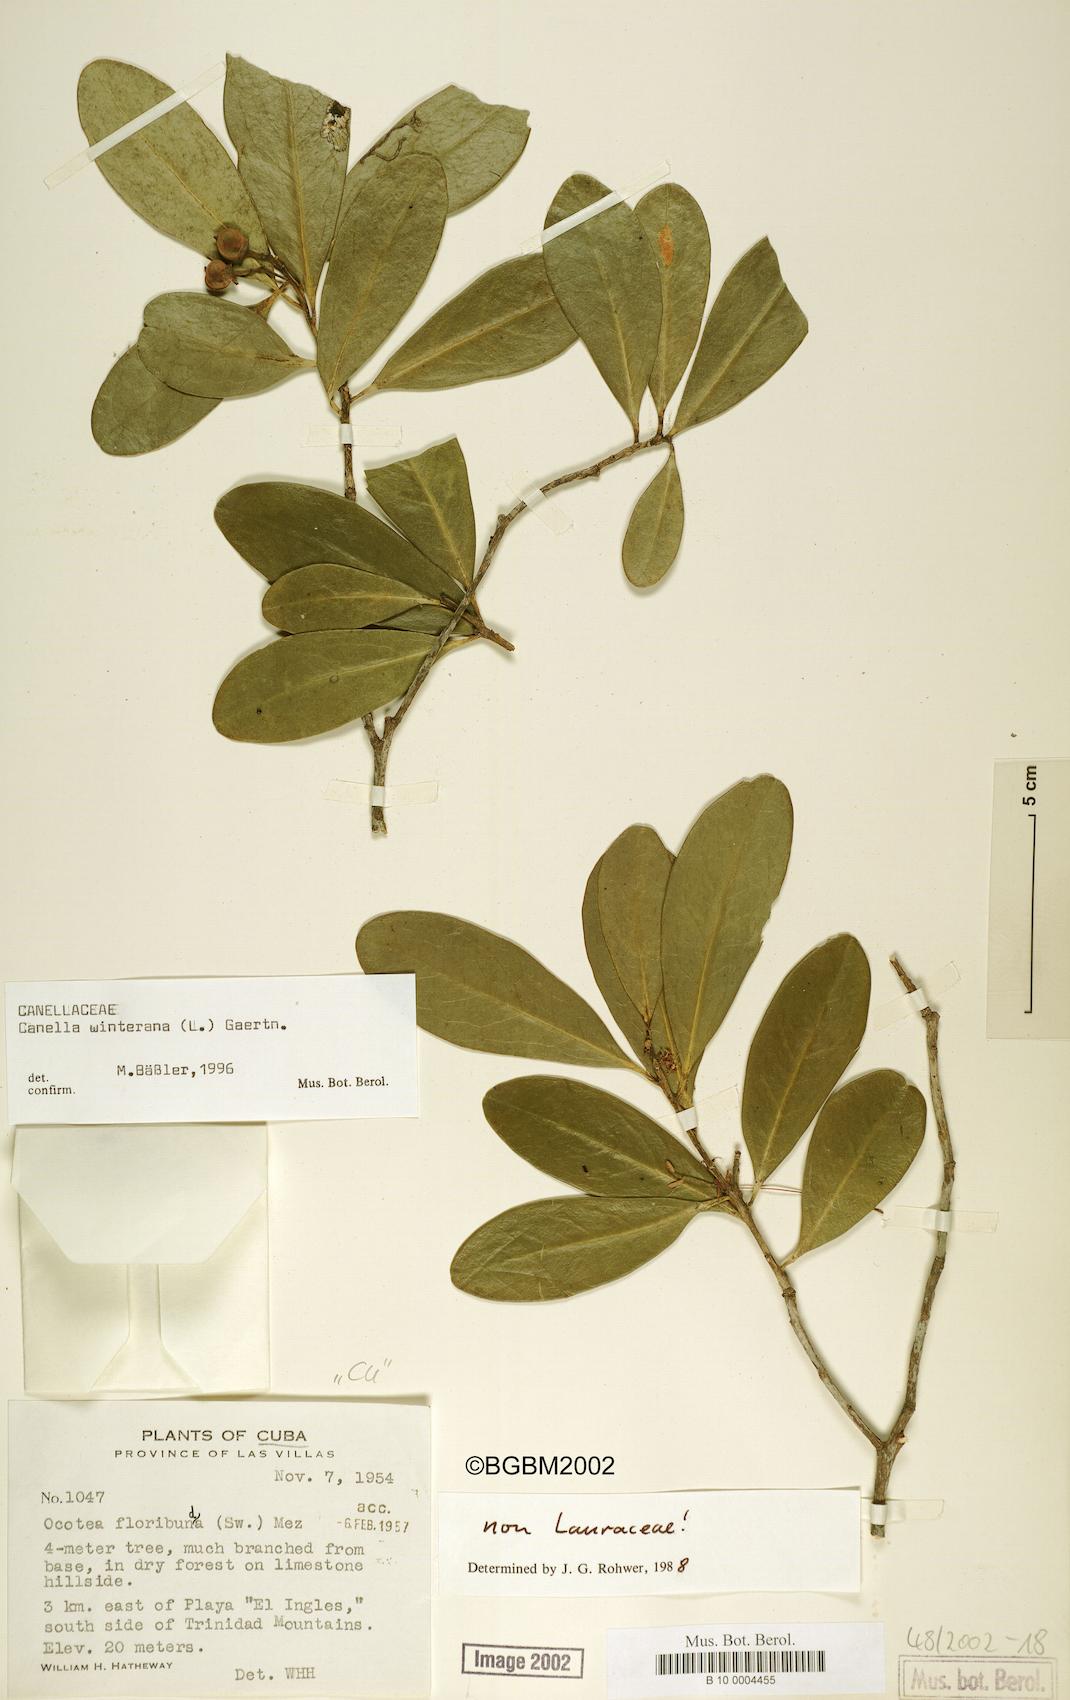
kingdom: Plantae
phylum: Tracheophyta
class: Magnoliopsida
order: Canellales
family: Canellaceae
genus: Canella
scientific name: Canella winterana
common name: Canella
